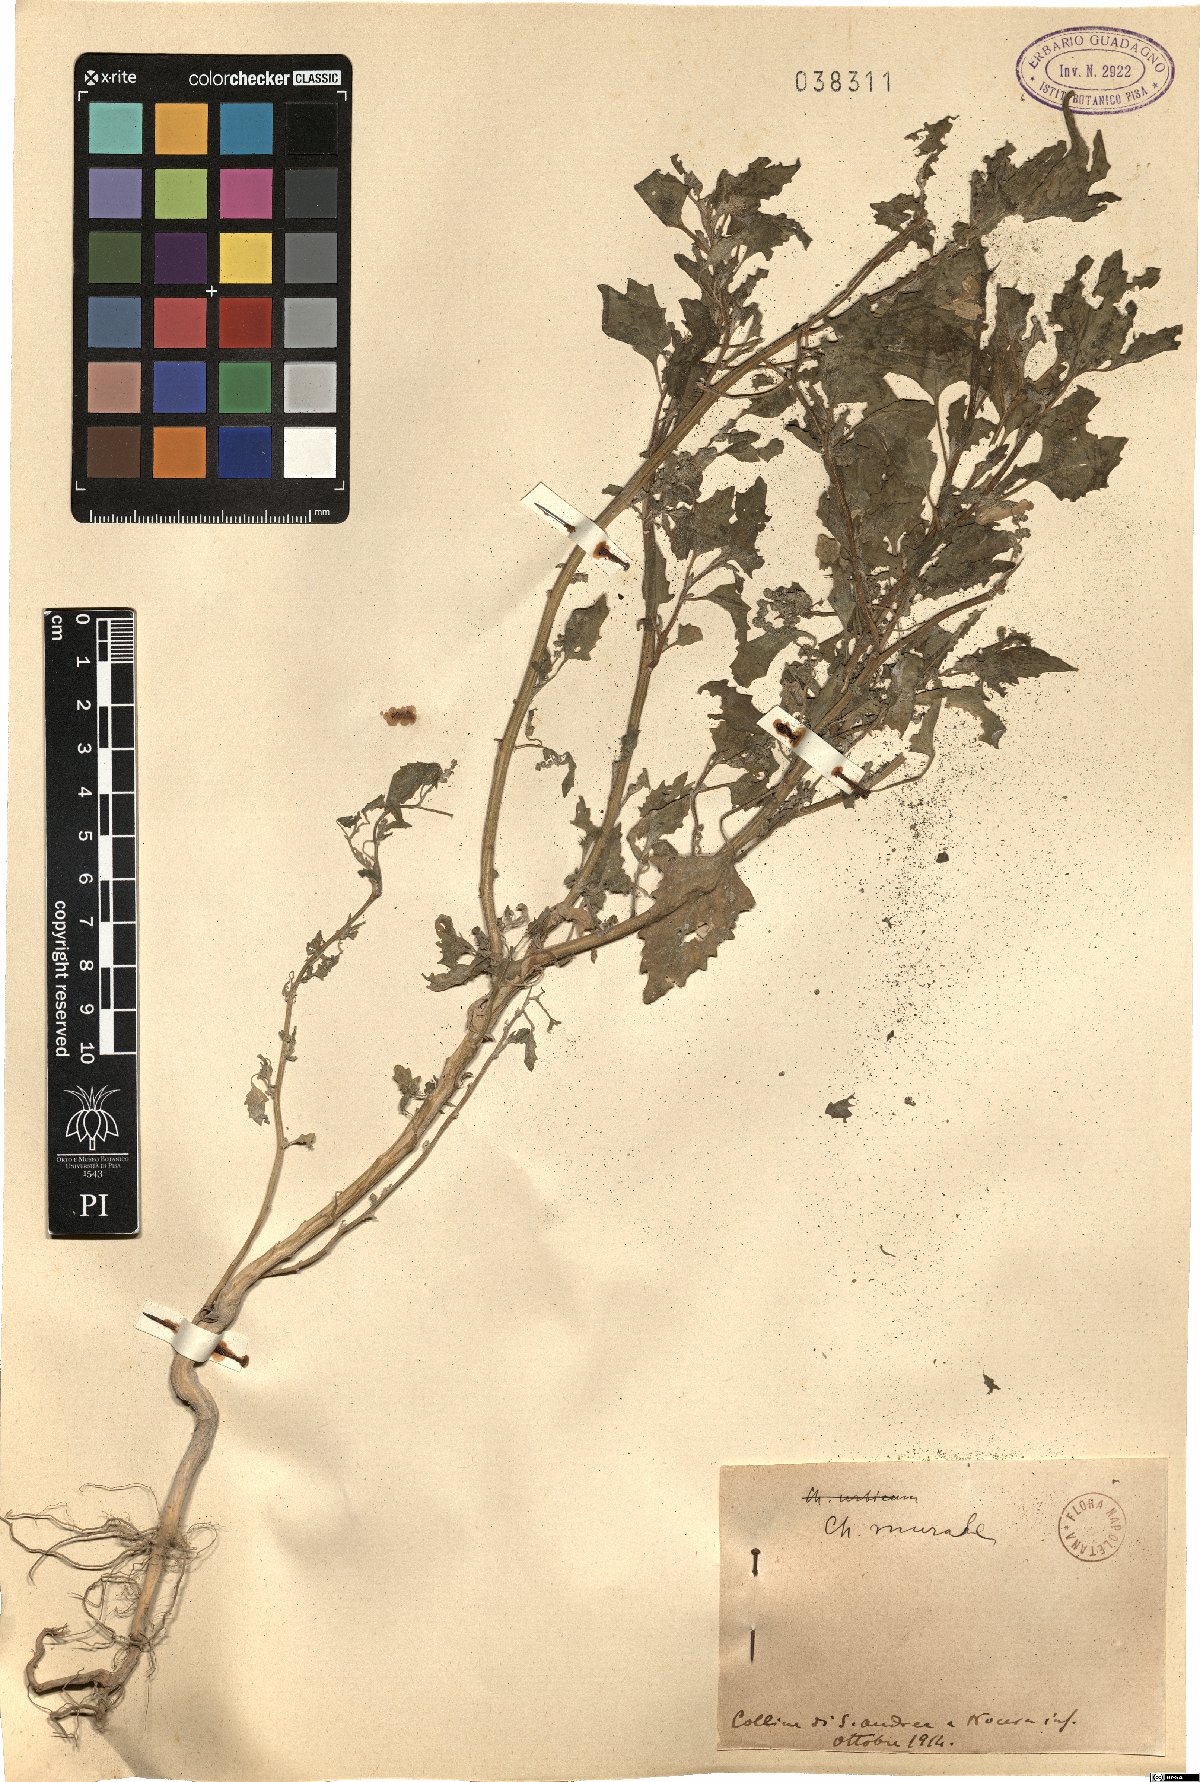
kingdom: Plantae
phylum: Tracheophyta
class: Magnoliopsida
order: Caryophyllales
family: Amaranthaceae
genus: Chenopodiastrum
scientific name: Chenopodiastrum murale
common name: Sowbane
